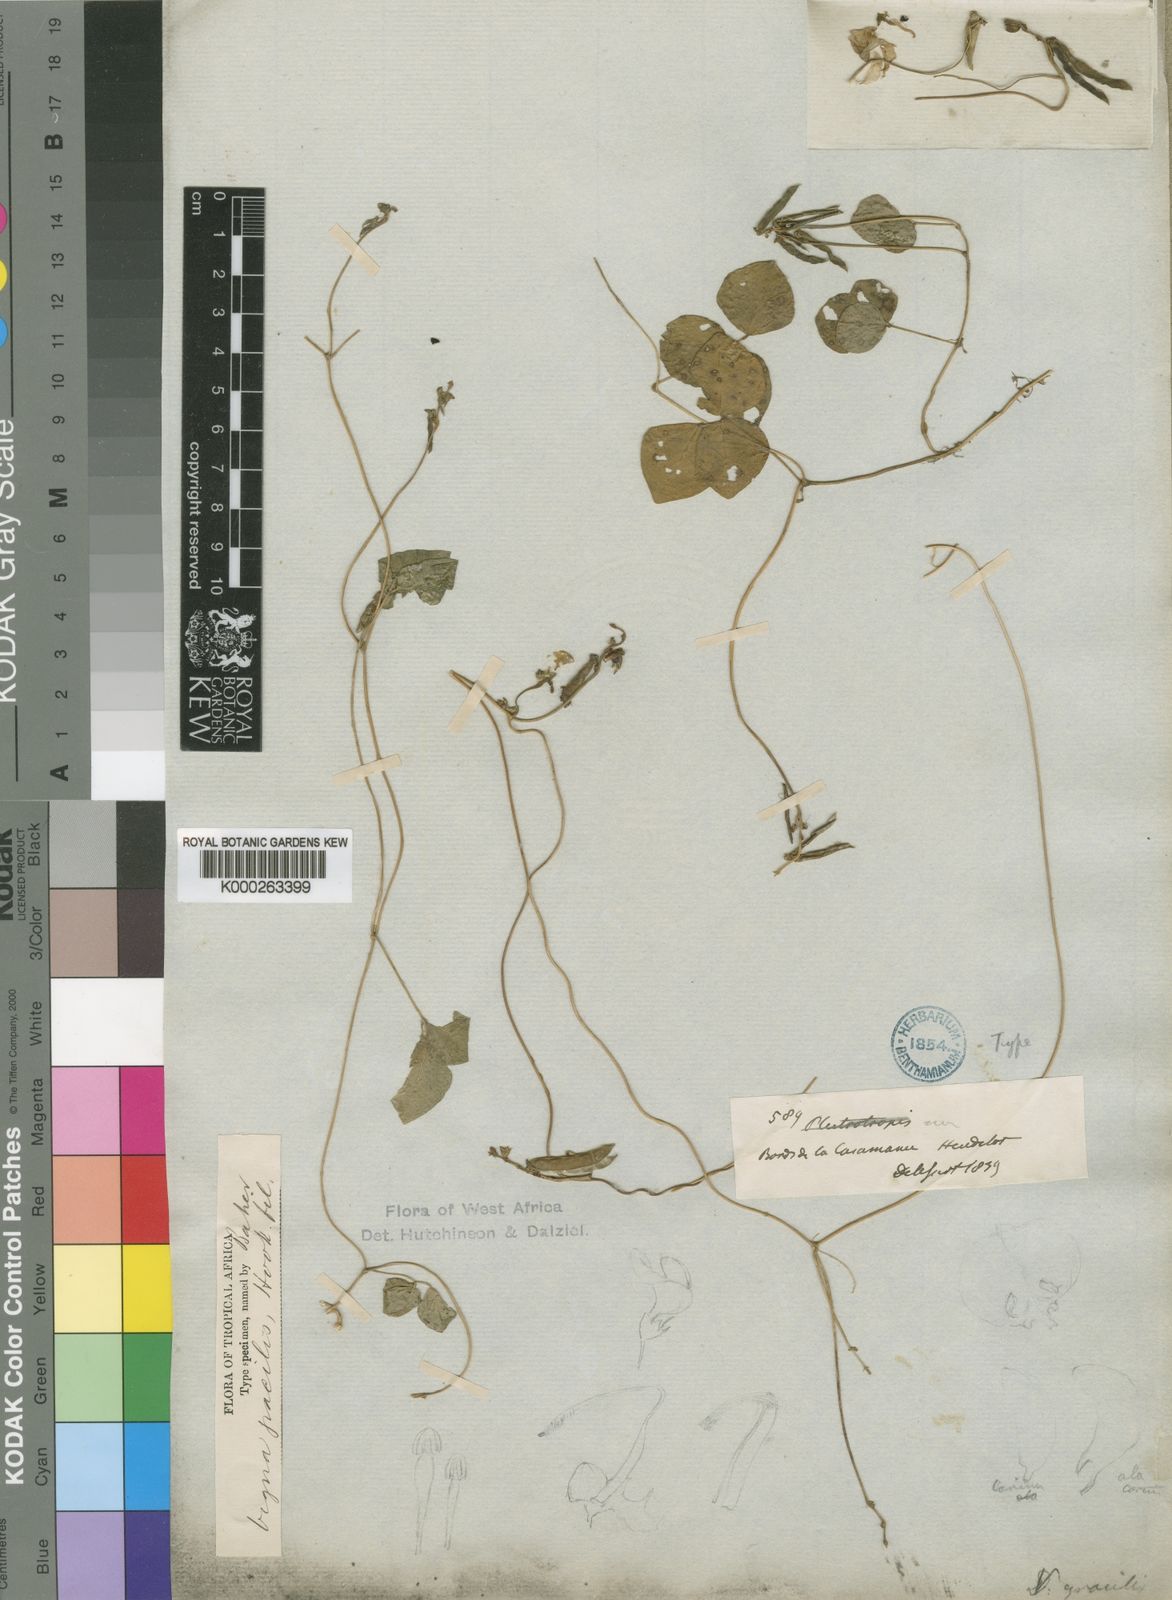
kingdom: Plantae
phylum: Tracheophyta
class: Magnoliopsida
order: Fabales
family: Fabaceae
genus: Vigna
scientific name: Vigna
